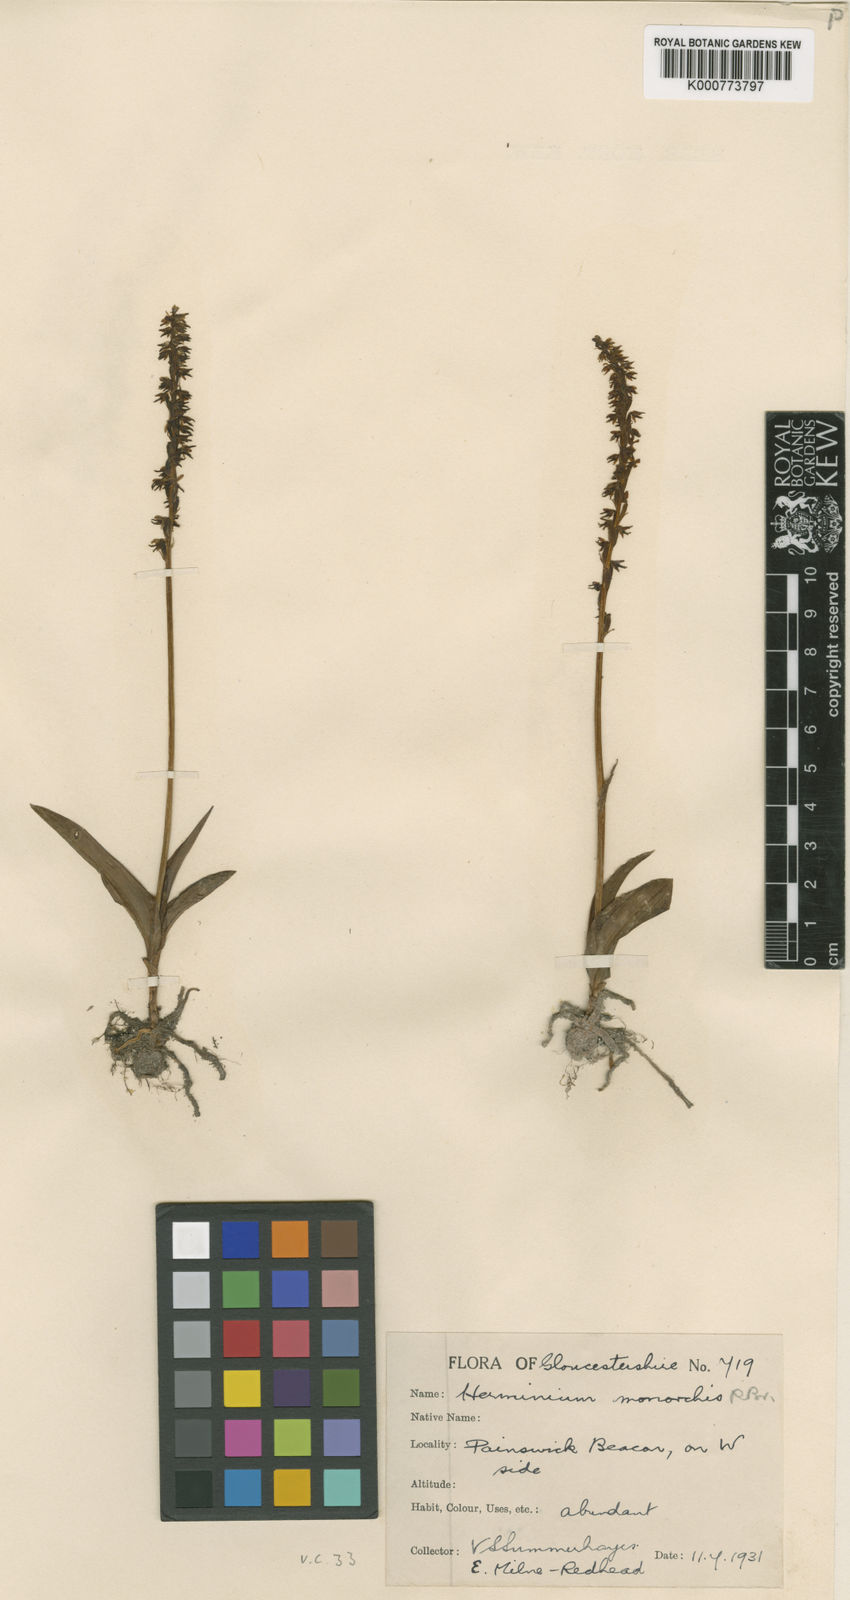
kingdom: Plantae
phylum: Tracheophyta
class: Liliopsida
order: Asparagales
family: Orchidaceae
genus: Herminium
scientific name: Herminium monorchis
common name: Musk orchid
